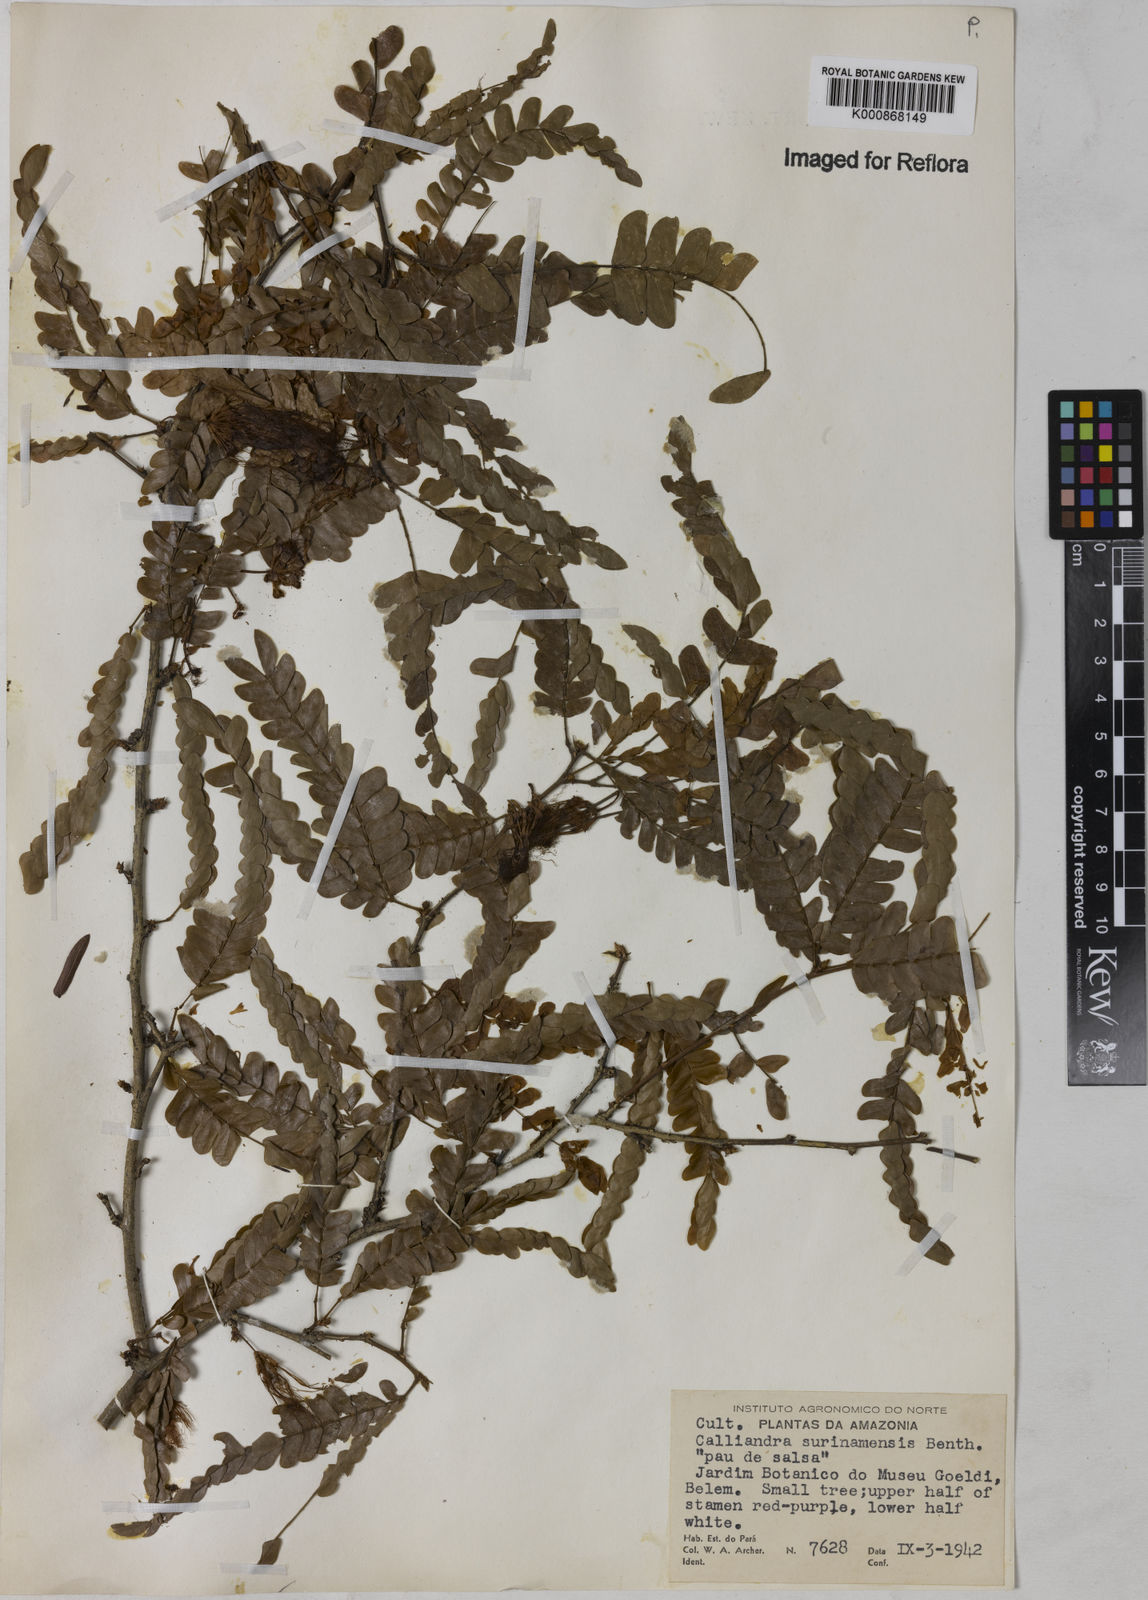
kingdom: Plantae
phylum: Tracheophyta
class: Magnoliopsida
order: Fabales
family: Fabaceae
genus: Calliandra
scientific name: Calliandra surinamensis
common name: Pink powder puff
